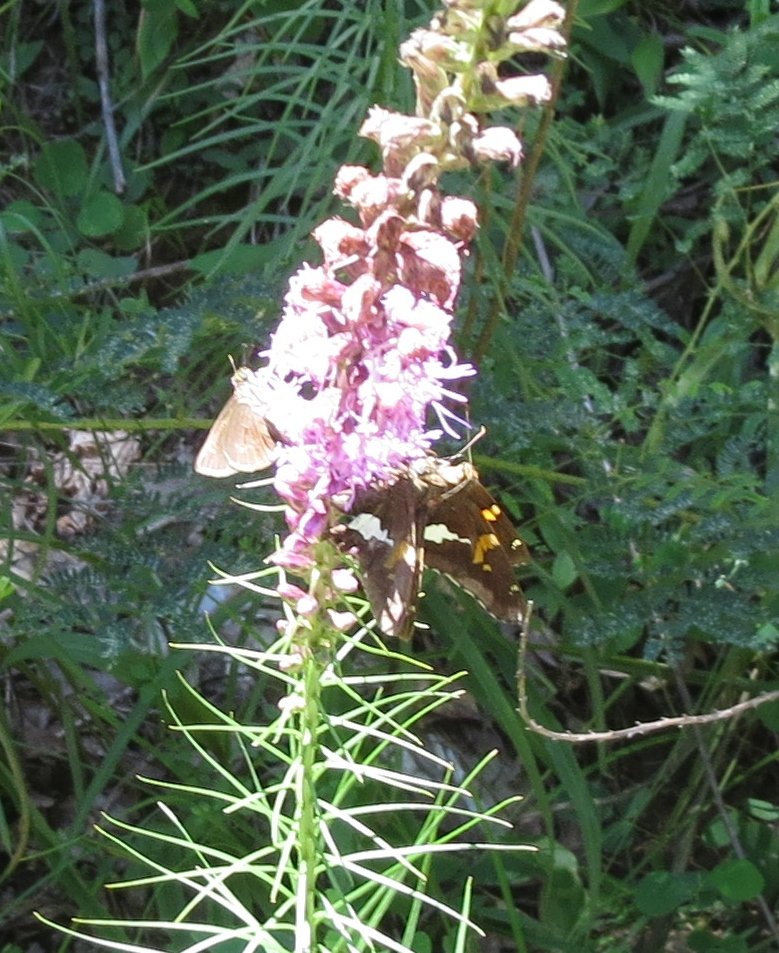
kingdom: Animalia
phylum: Arthropoda
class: Insecta
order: Lepidoptera
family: Hesperiidae
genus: Polites
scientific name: Polites
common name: Crossline Skipper
